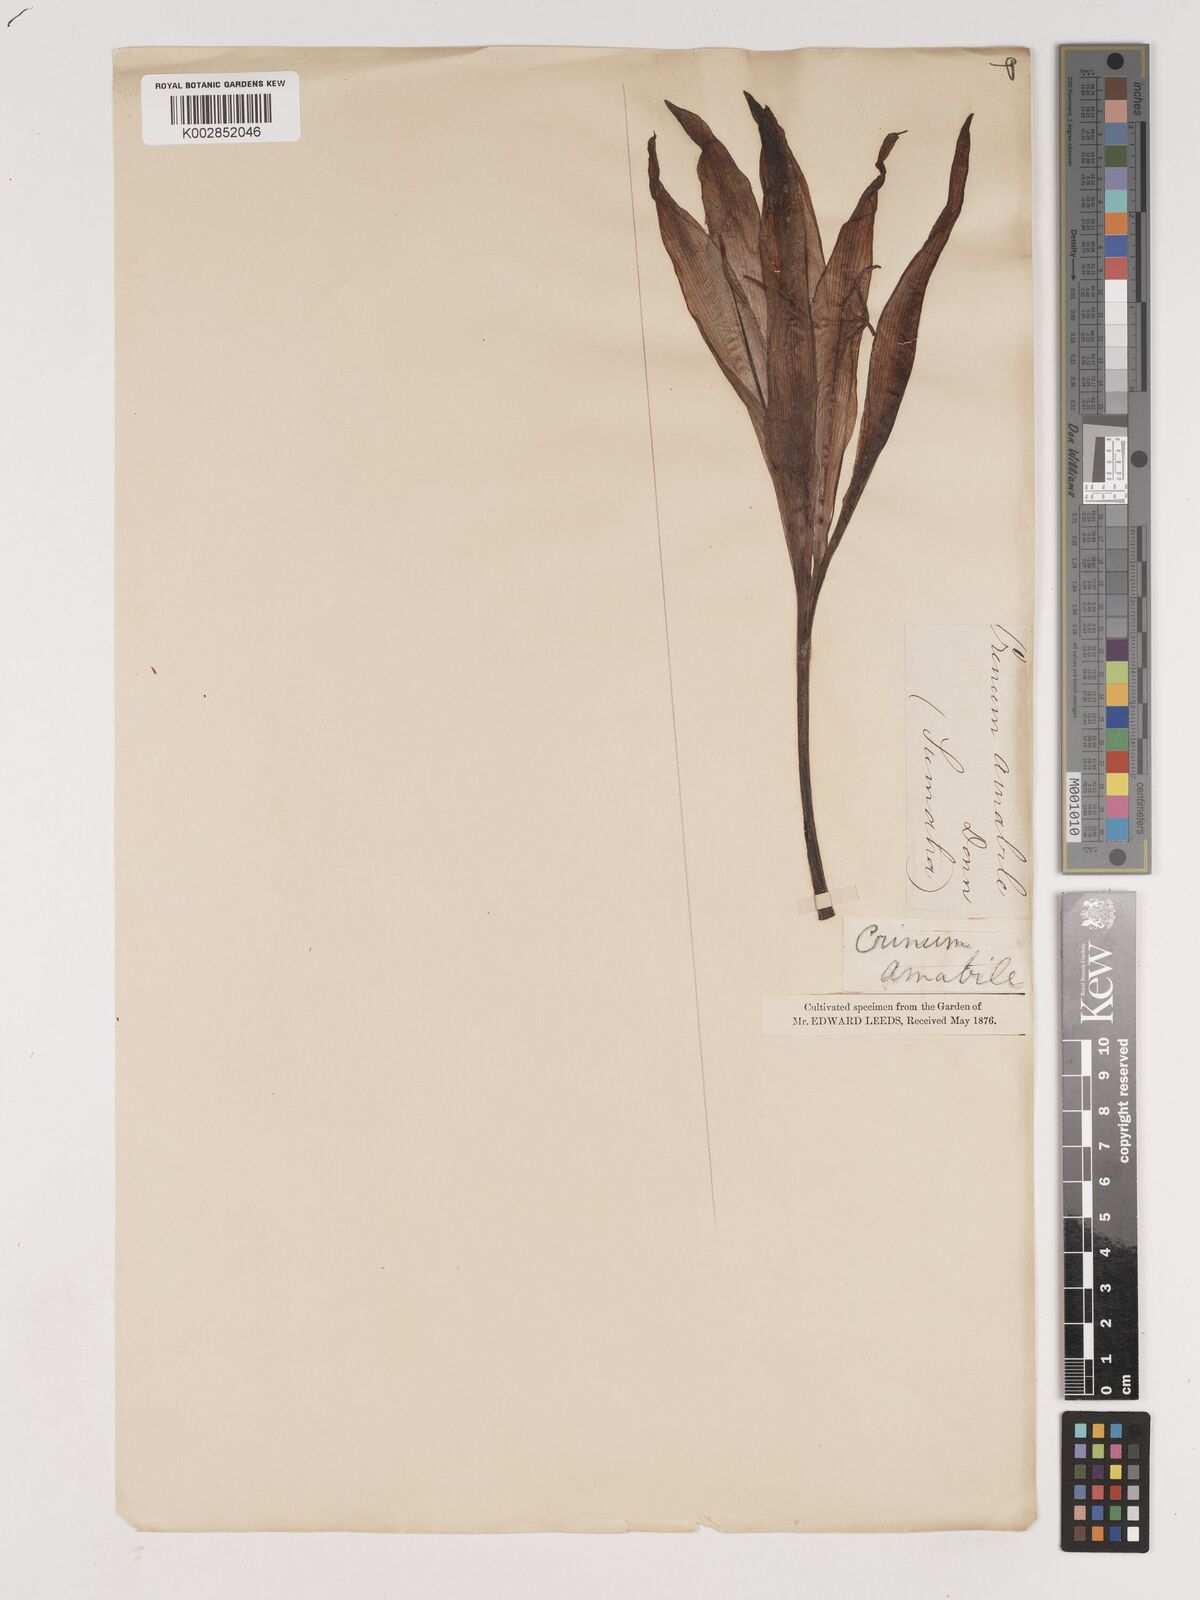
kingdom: Plantae
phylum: Tracheophyta
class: Liliopsida
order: Asparagales
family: Amaryllidaceae
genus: Crinum
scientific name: Crinum amabile
